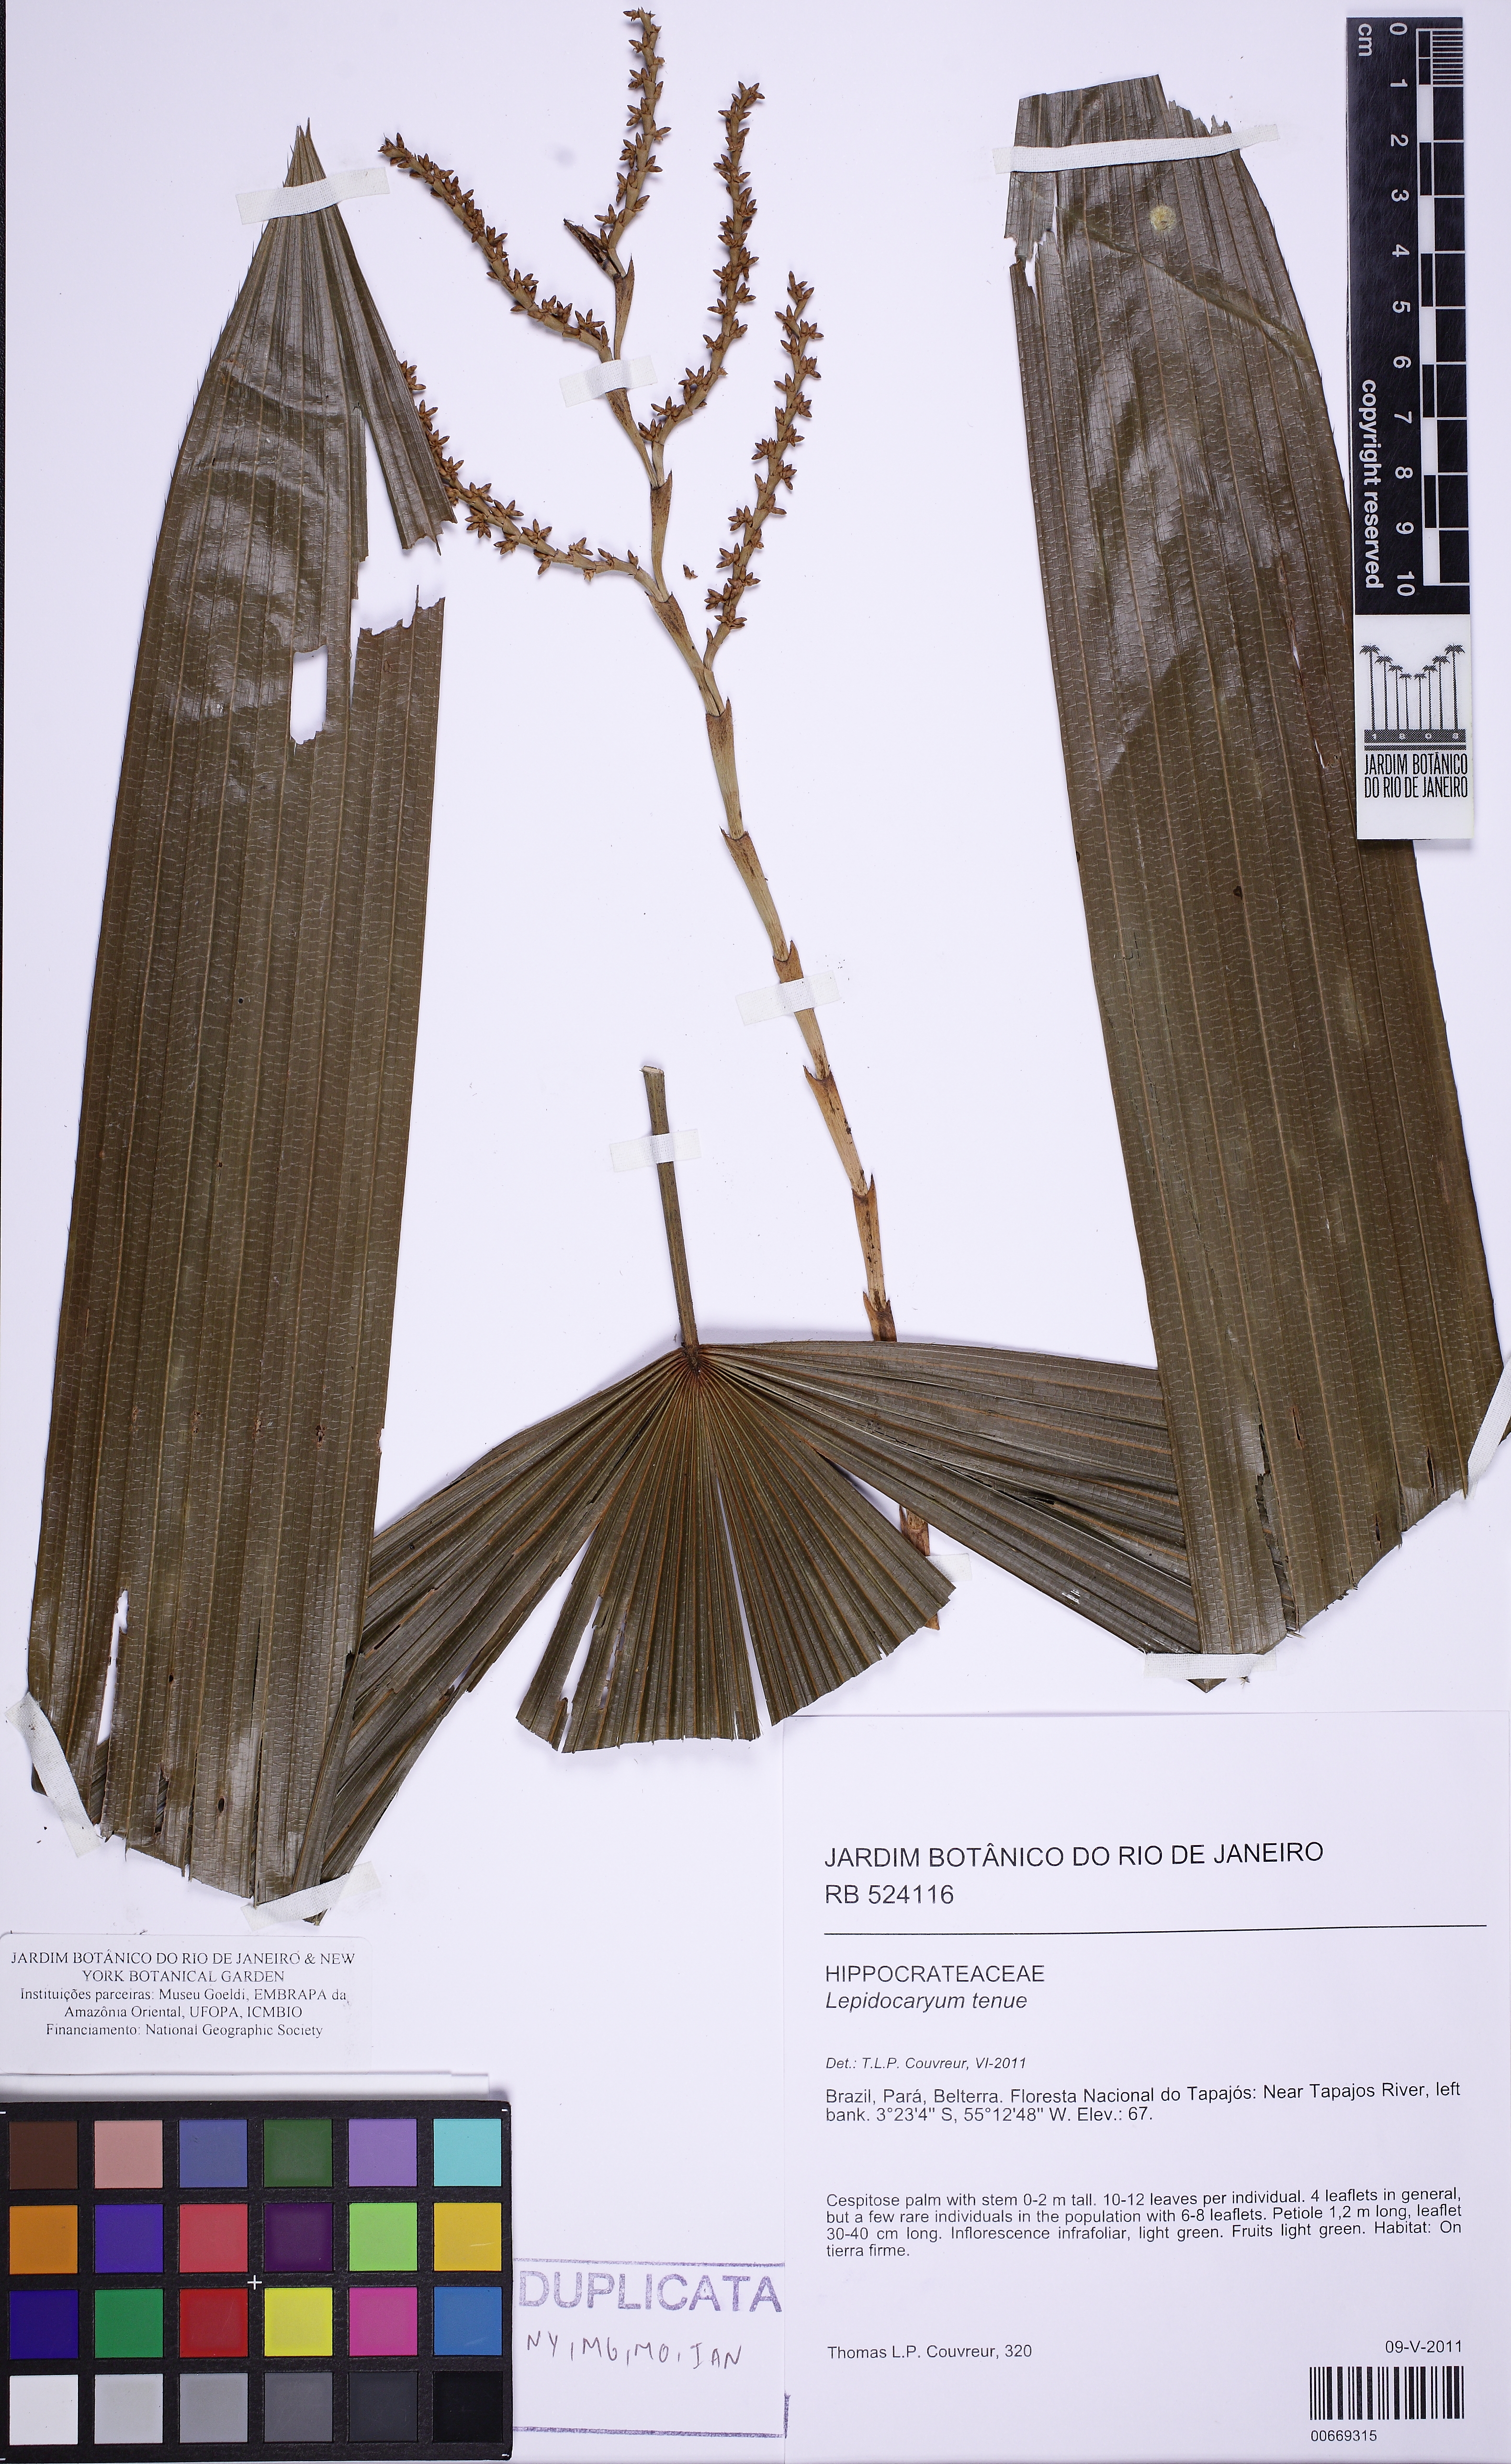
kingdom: Plantae
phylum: Tracheophyta
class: Liliopsida
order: Arecales
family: Arecaceae
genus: Lepidocaryum
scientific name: Lepidocaryum tenue
